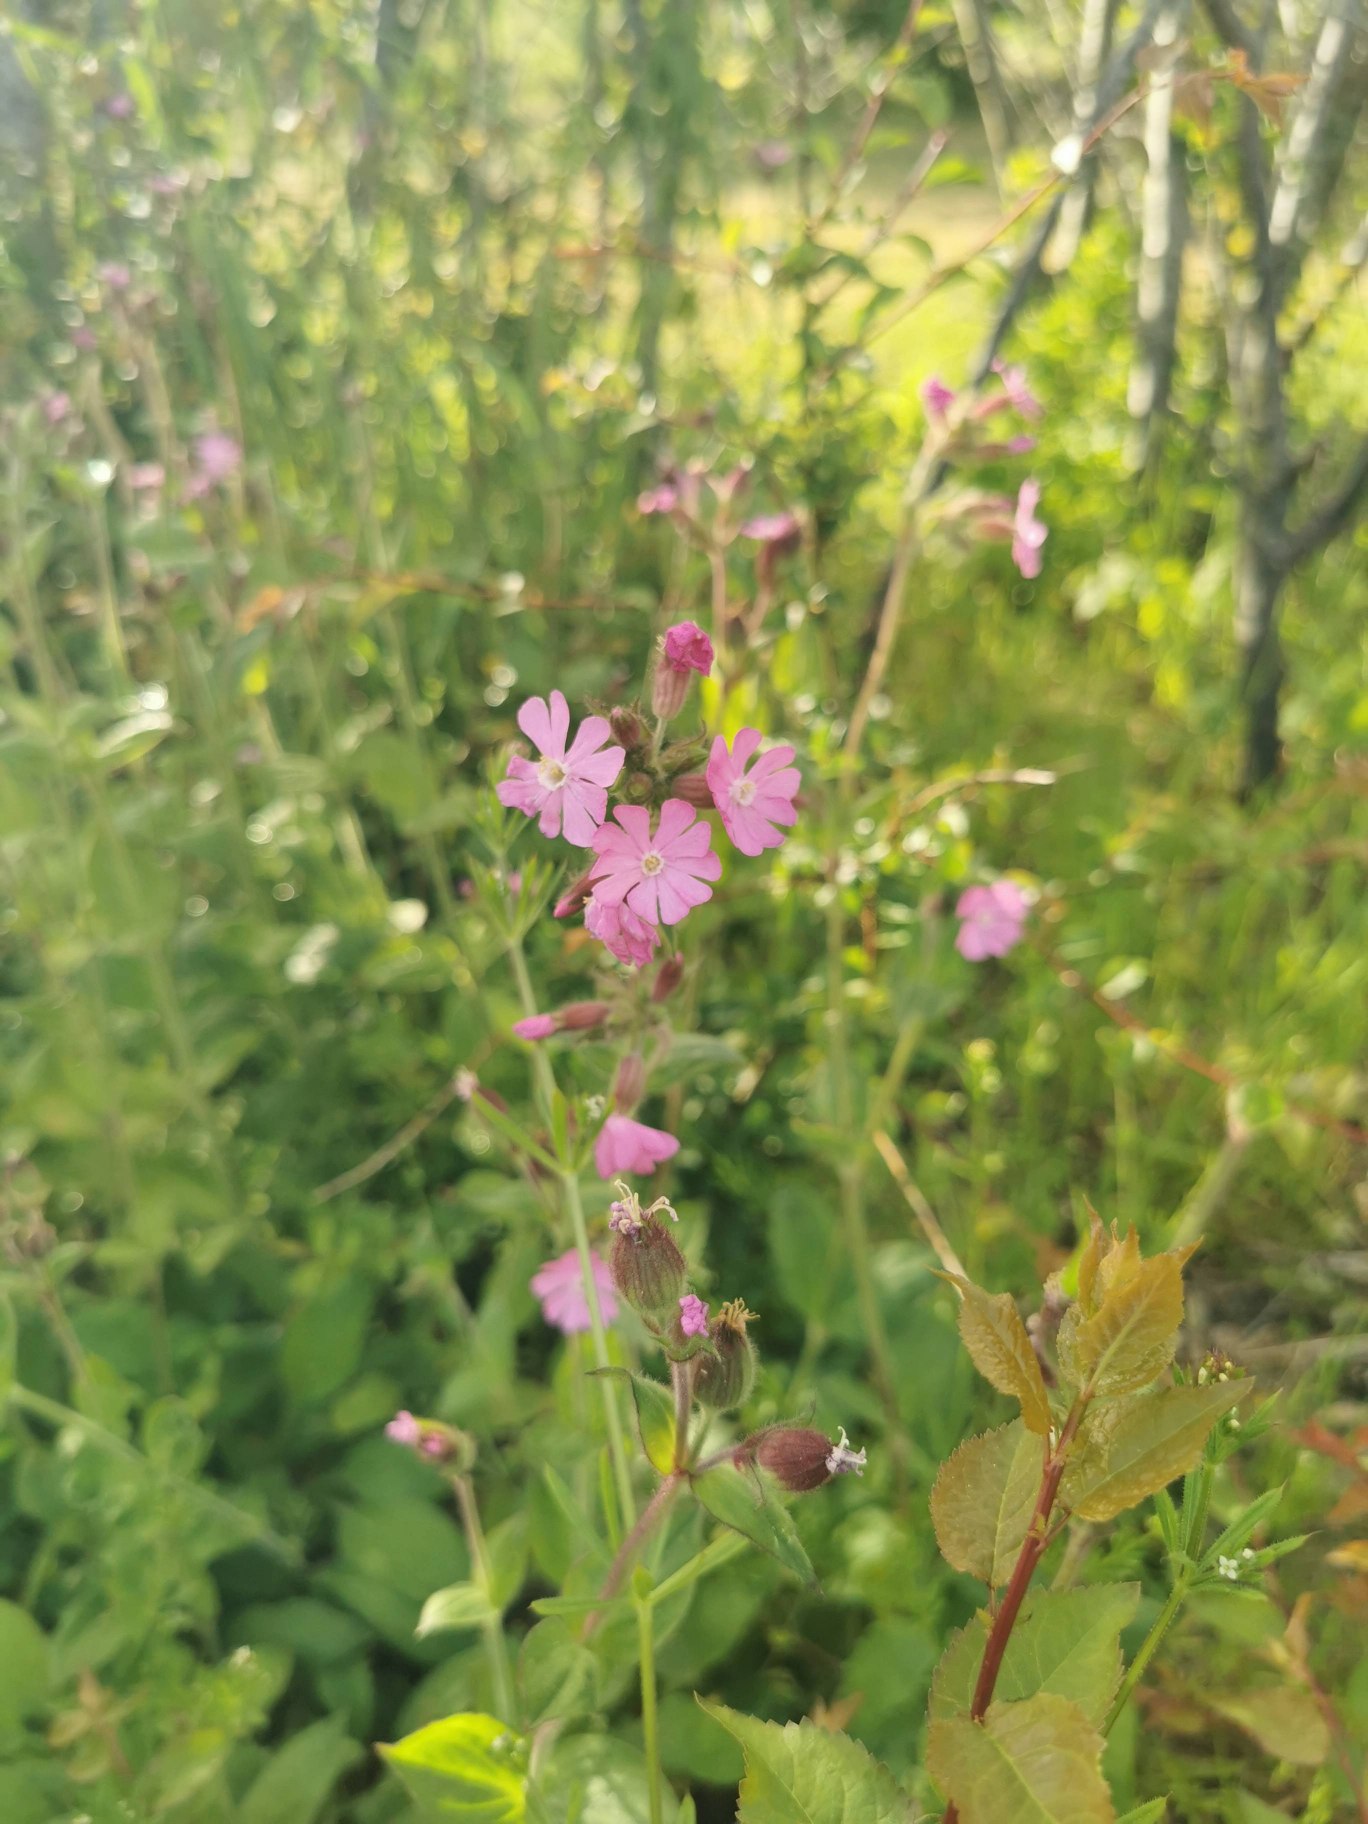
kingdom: Plantae
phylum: Tracheophyta
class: Magnoliopsida
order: Caryophyllales
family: Caryophyllaceae
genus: Silene
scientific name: Silene dioica
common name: Dagpragtstjerne
